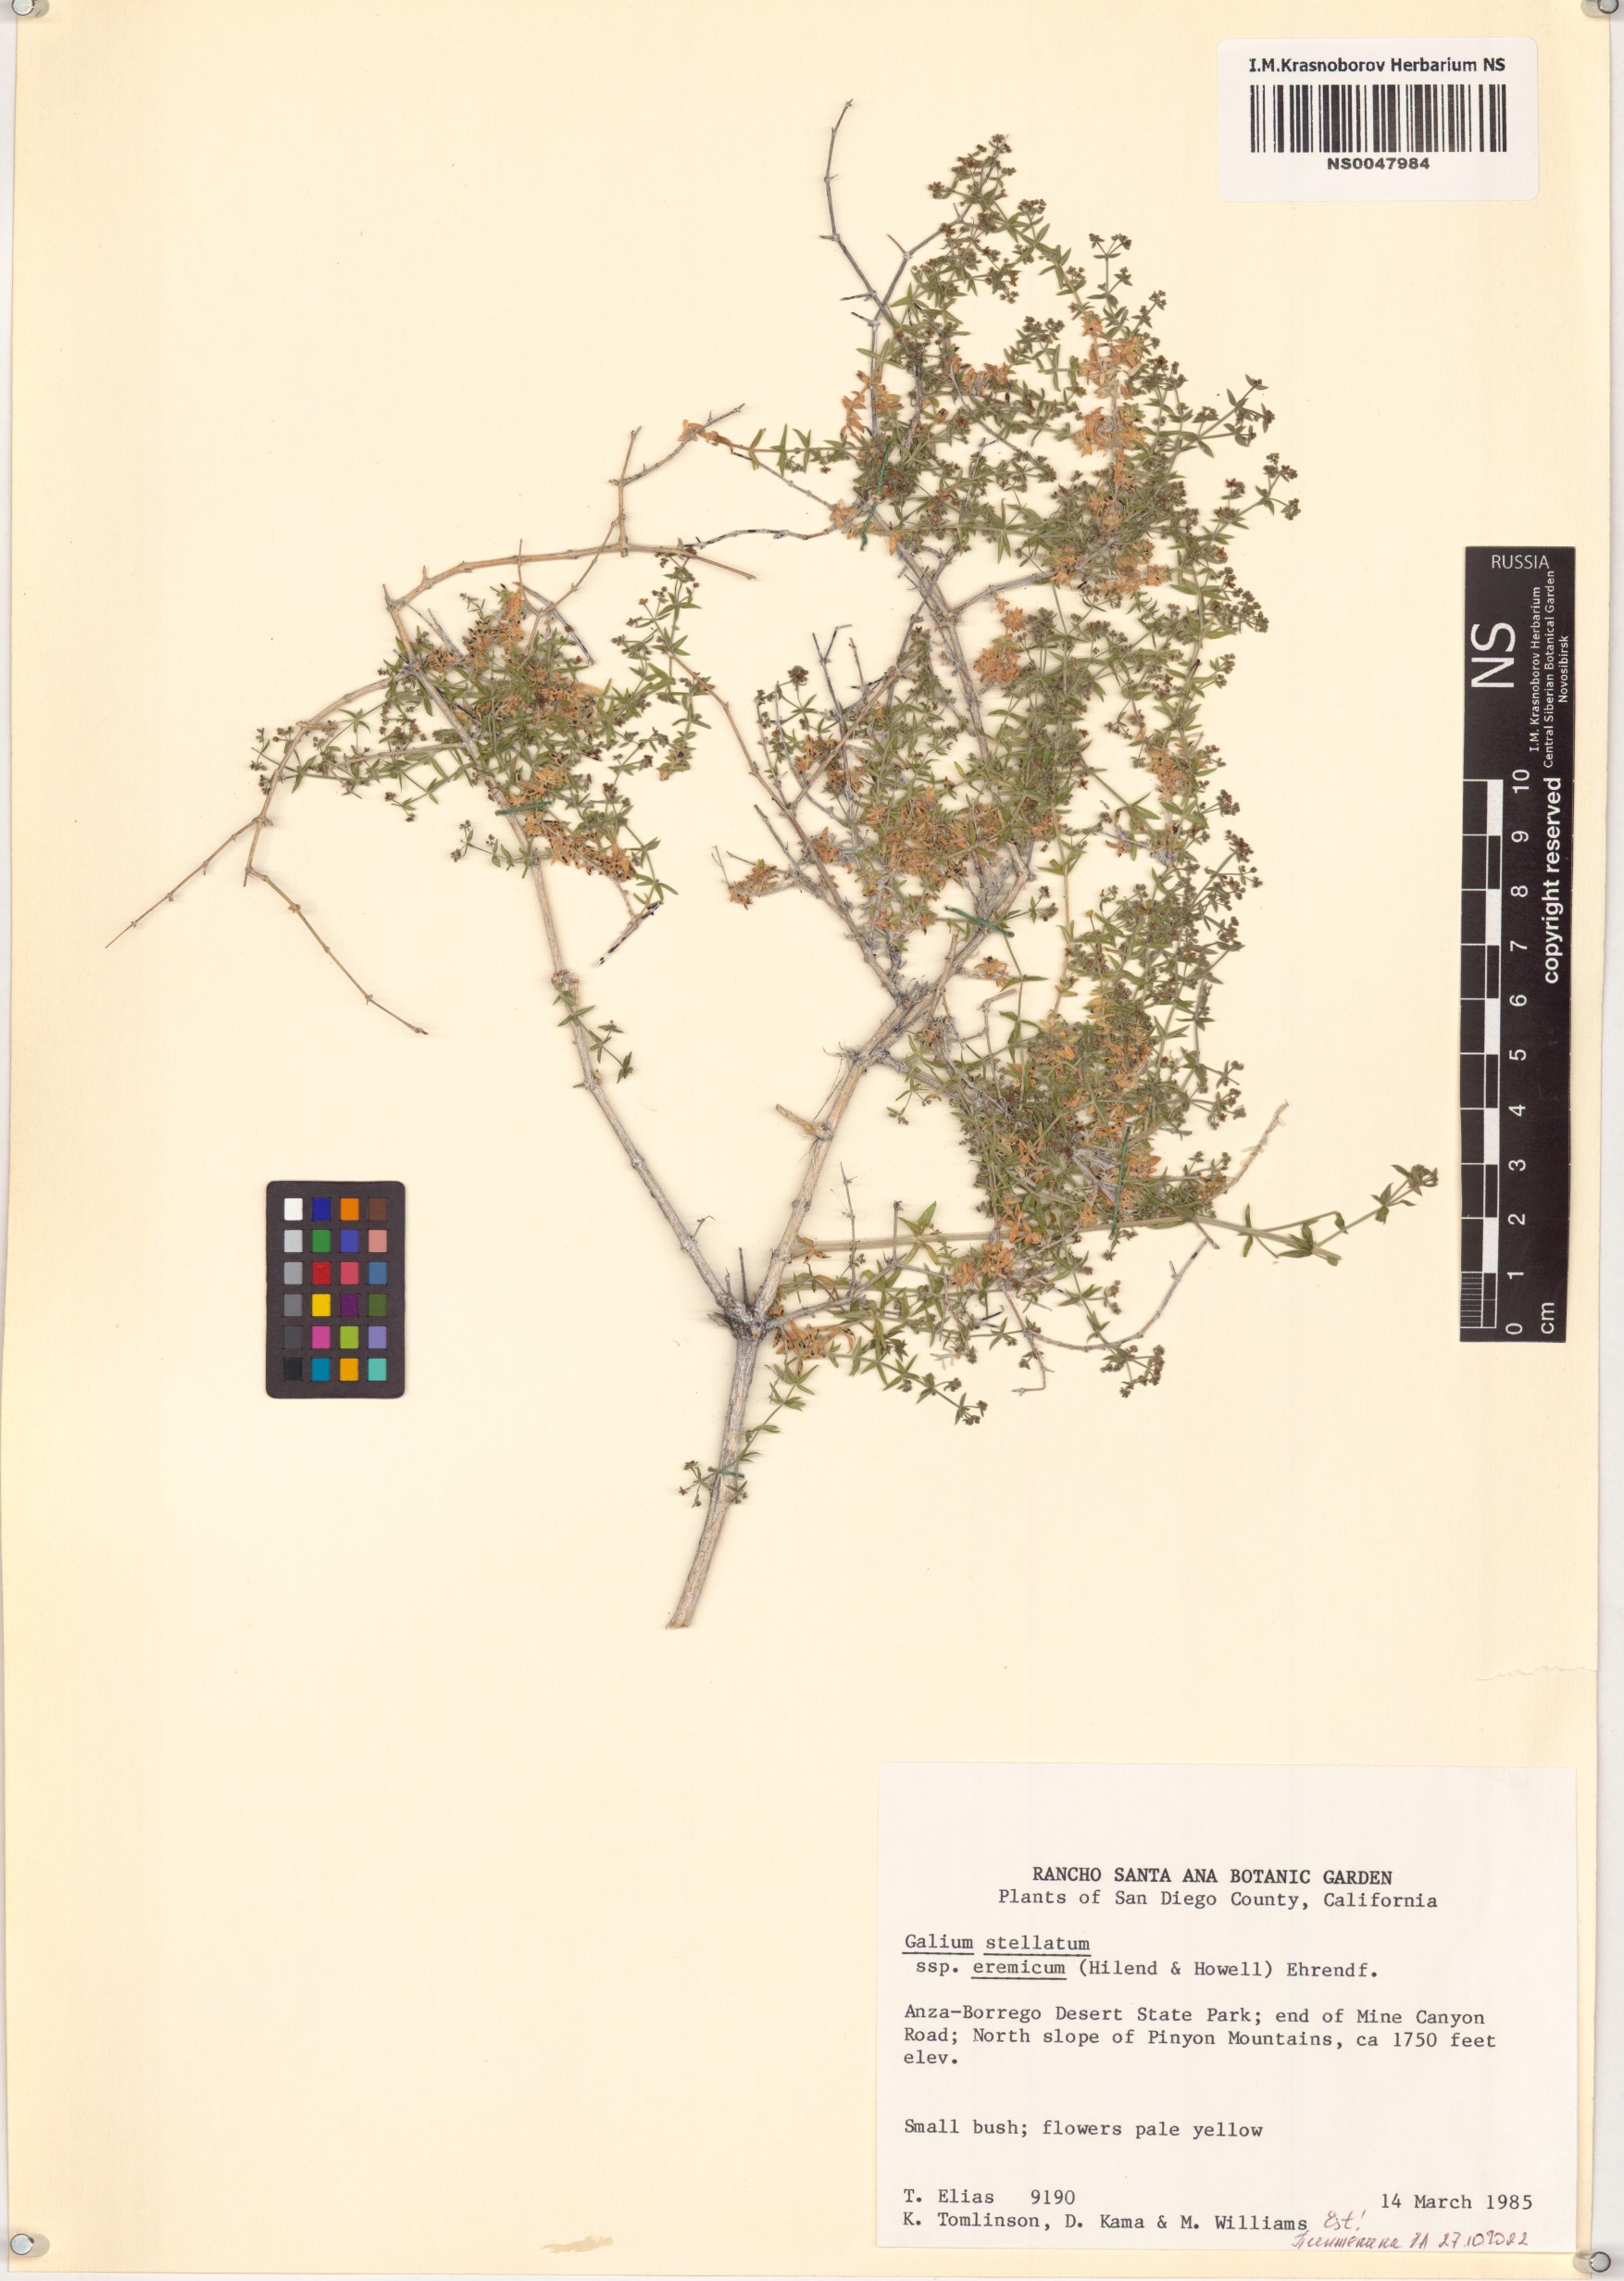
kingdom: Plantae
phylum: Tracheophyta
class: Magnoliopsida
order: Gentianales
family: Rubiaceae
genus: Galium
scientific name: Galium stellatum
